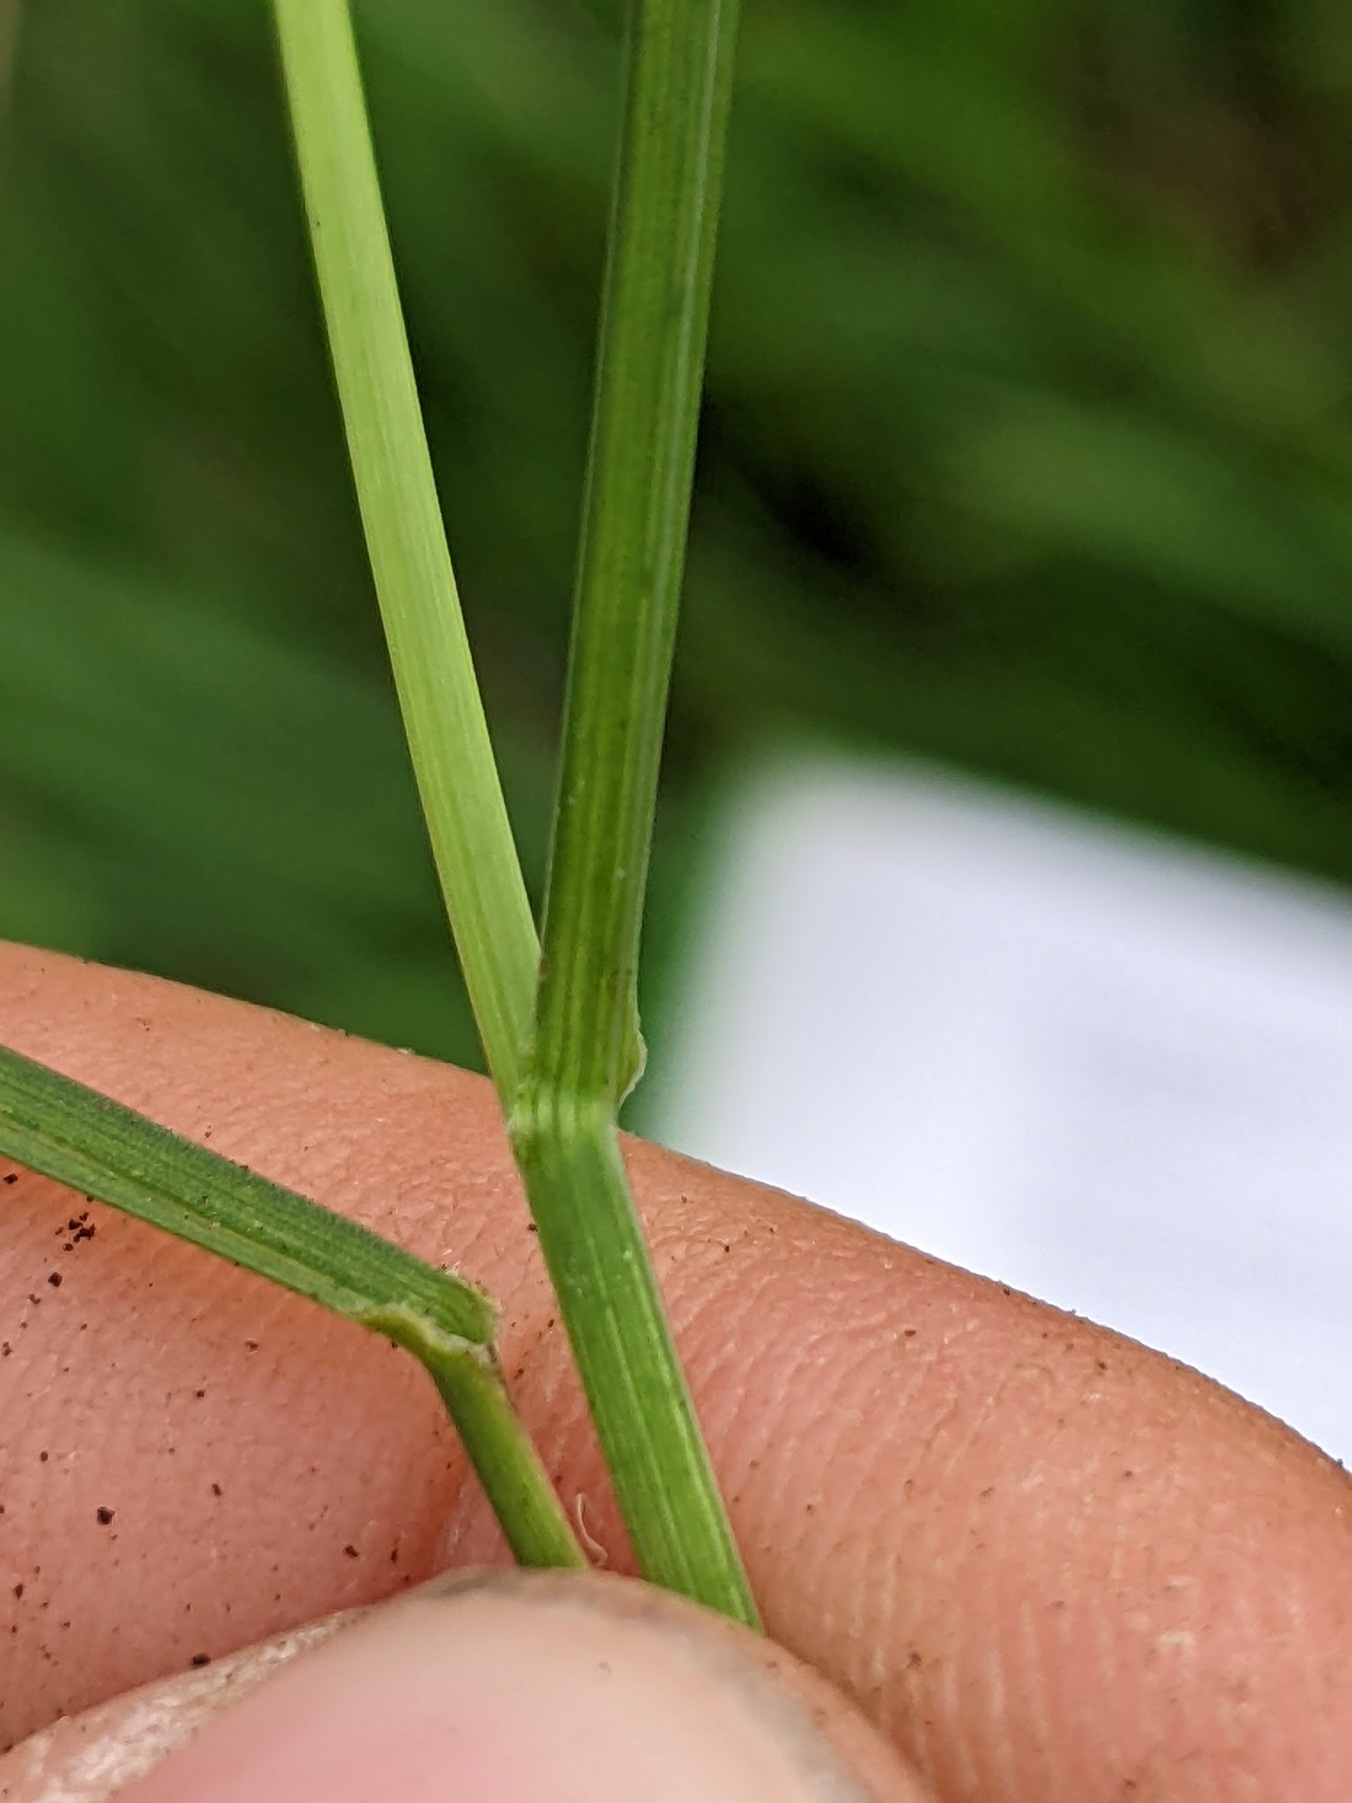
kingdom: Plantae
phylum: Tracheophyta
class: Liliopsida
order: Poales
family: Poaceae
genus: Poa
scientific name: Poa pratensis
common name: Eng-rapgræs
